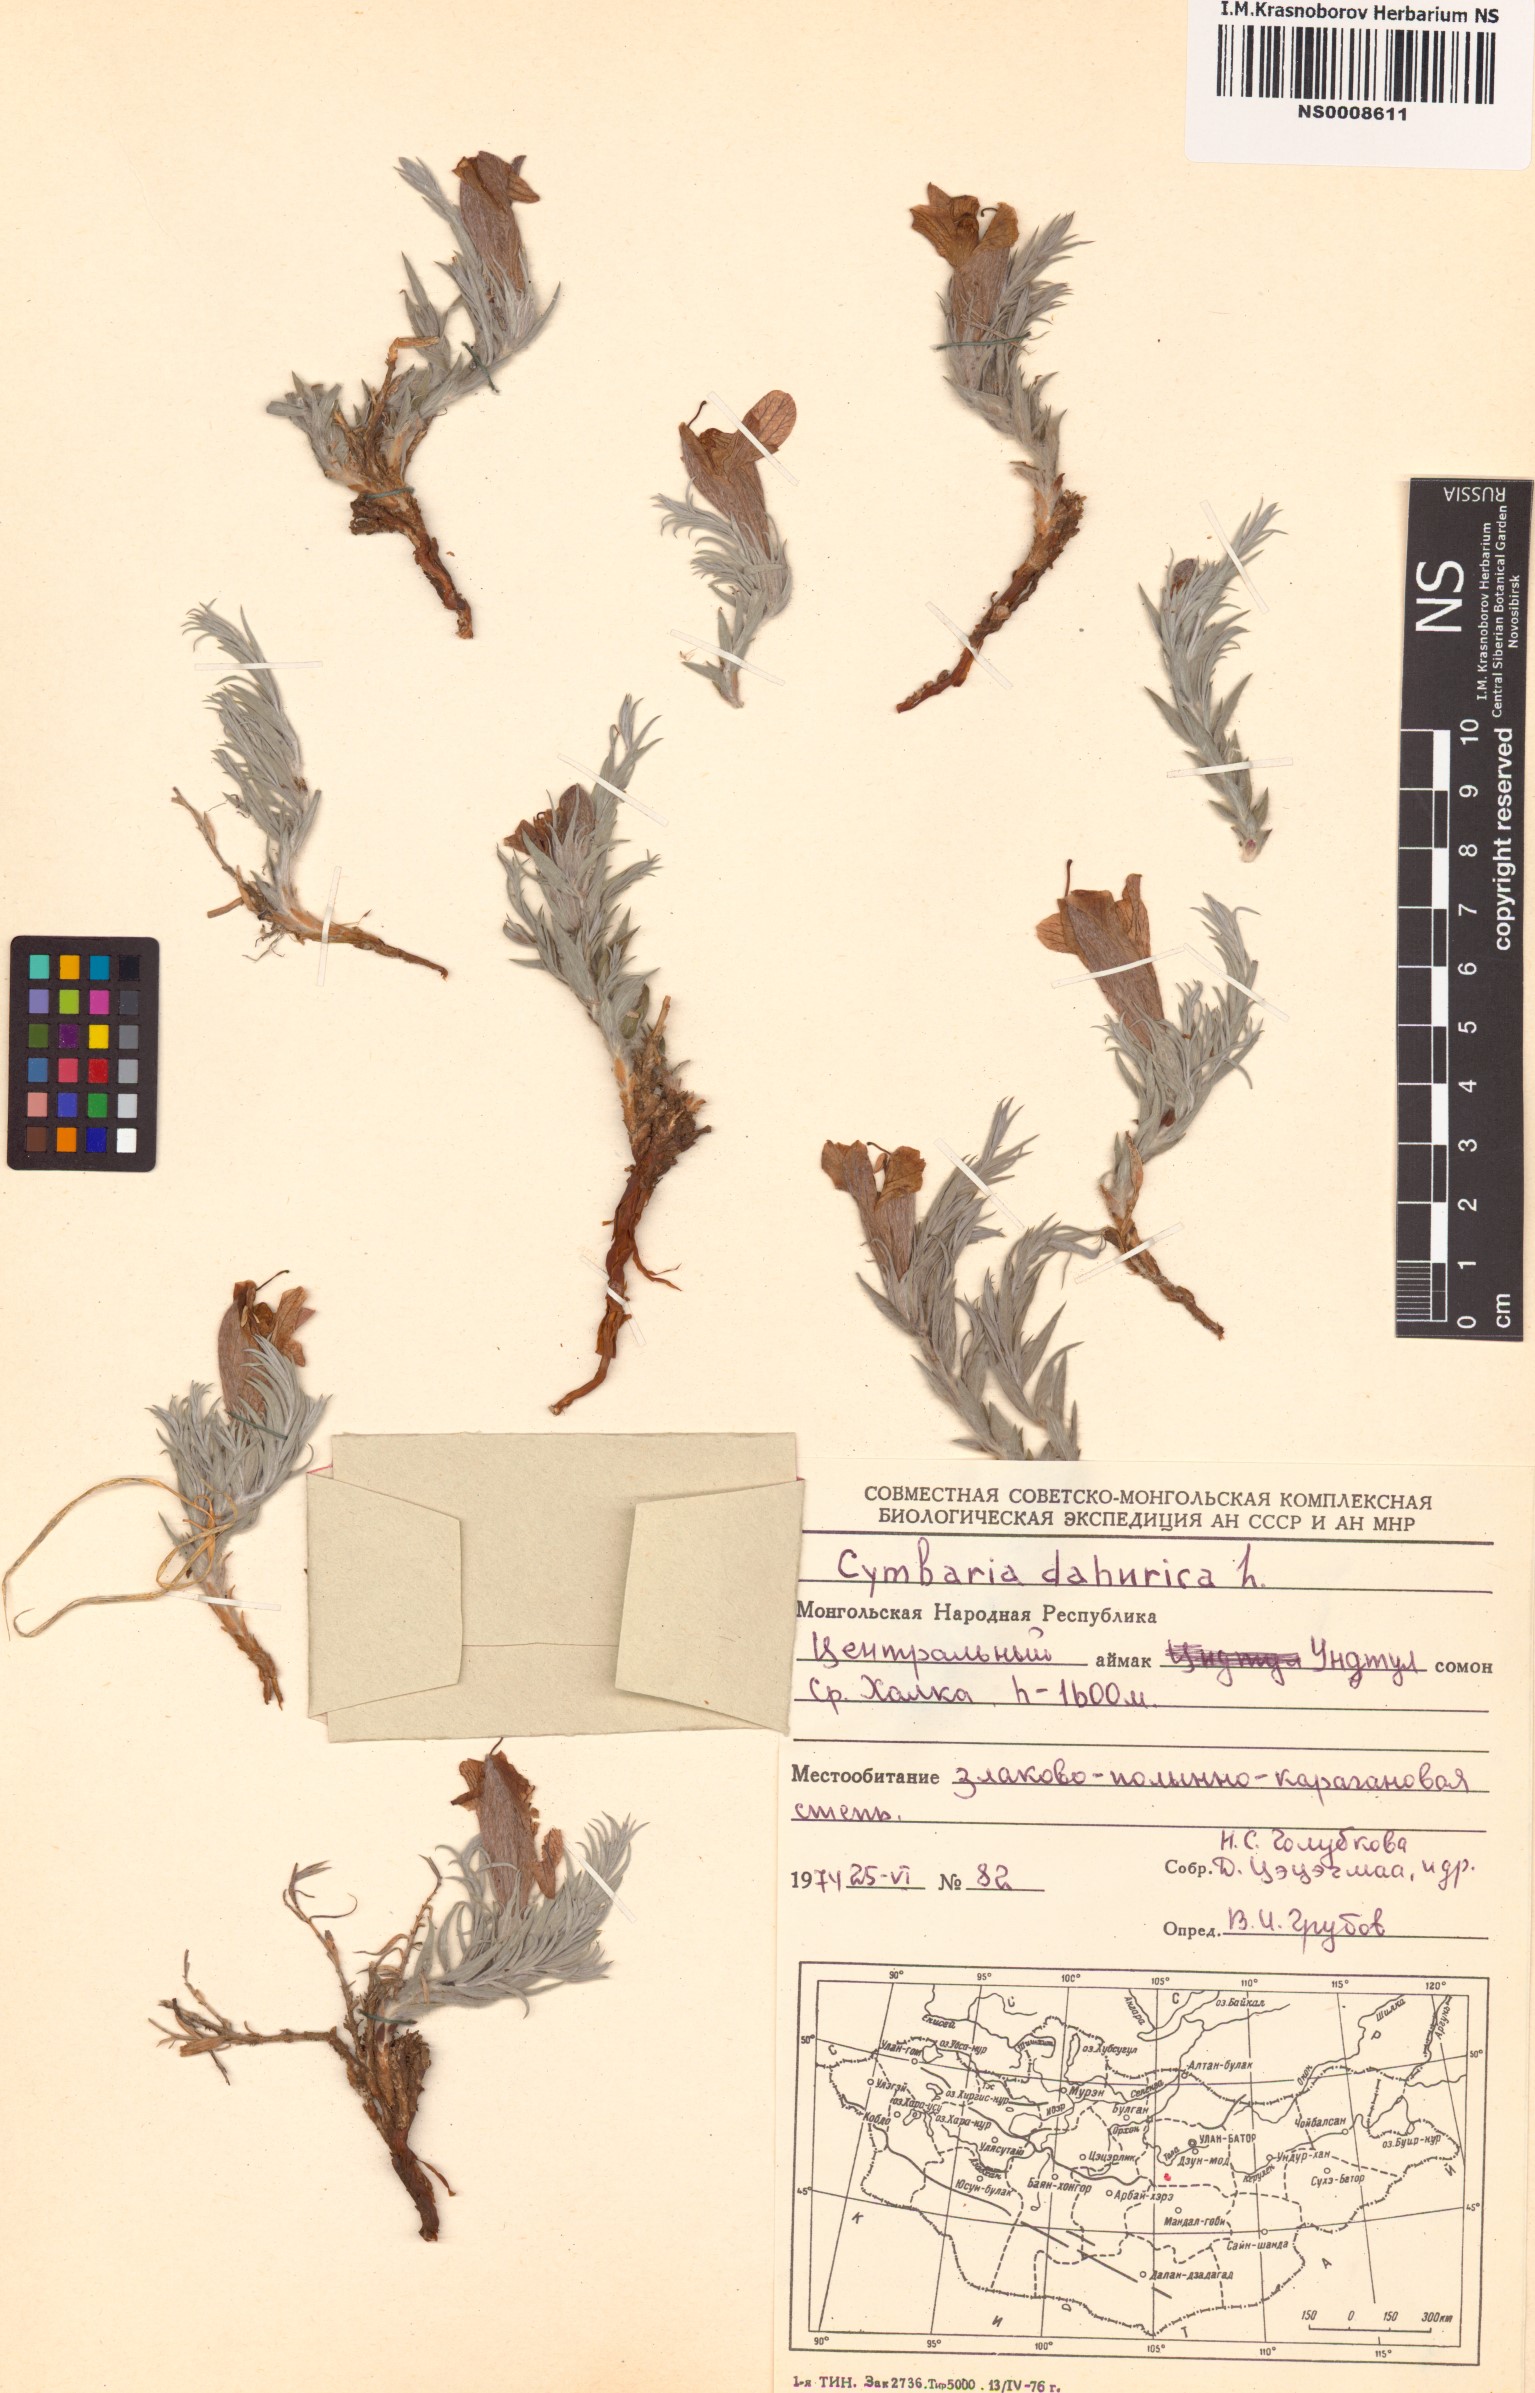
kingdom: Plantae
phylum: Tracheophyta
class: Magnoliopsida
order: Lamiales
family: Orobanchaceae
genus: Cymbaria
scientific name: Cymbaria daurica
